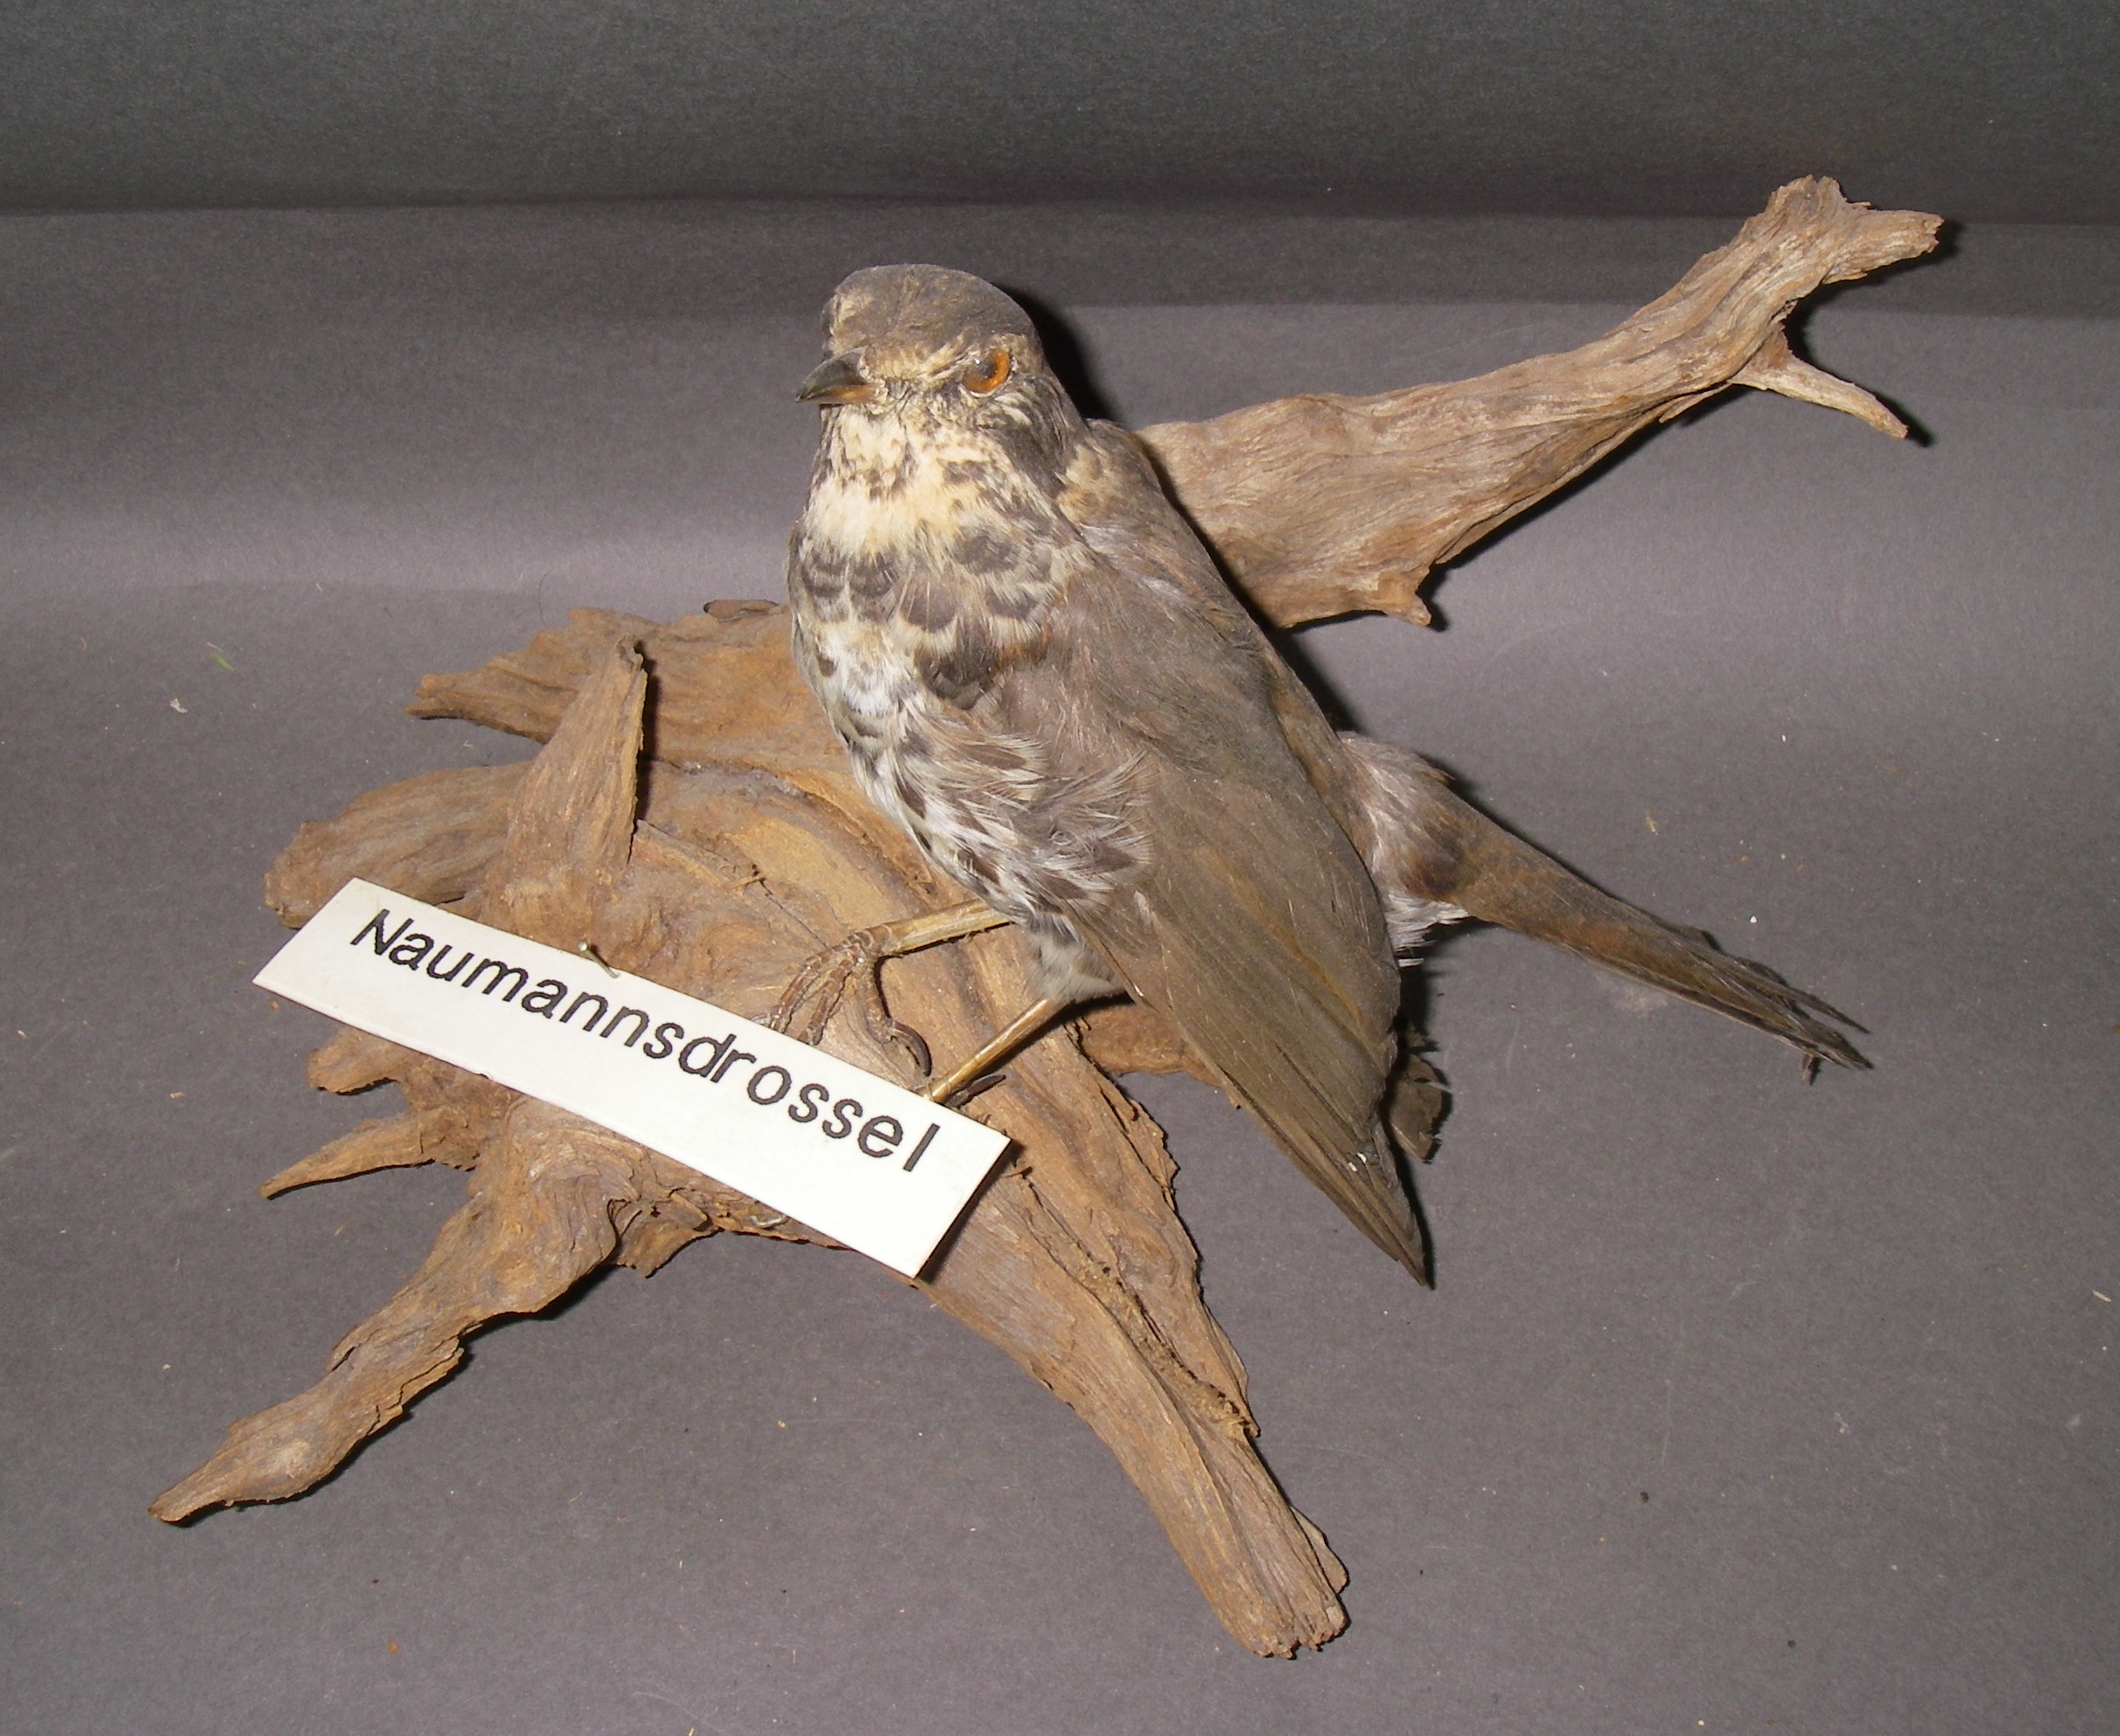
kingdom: Animalia
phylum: Chordata
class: Aves
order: Passeriformes
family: Turdidae
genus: Turdus
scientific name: Turdus naumanni
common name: Naumann's thrush
